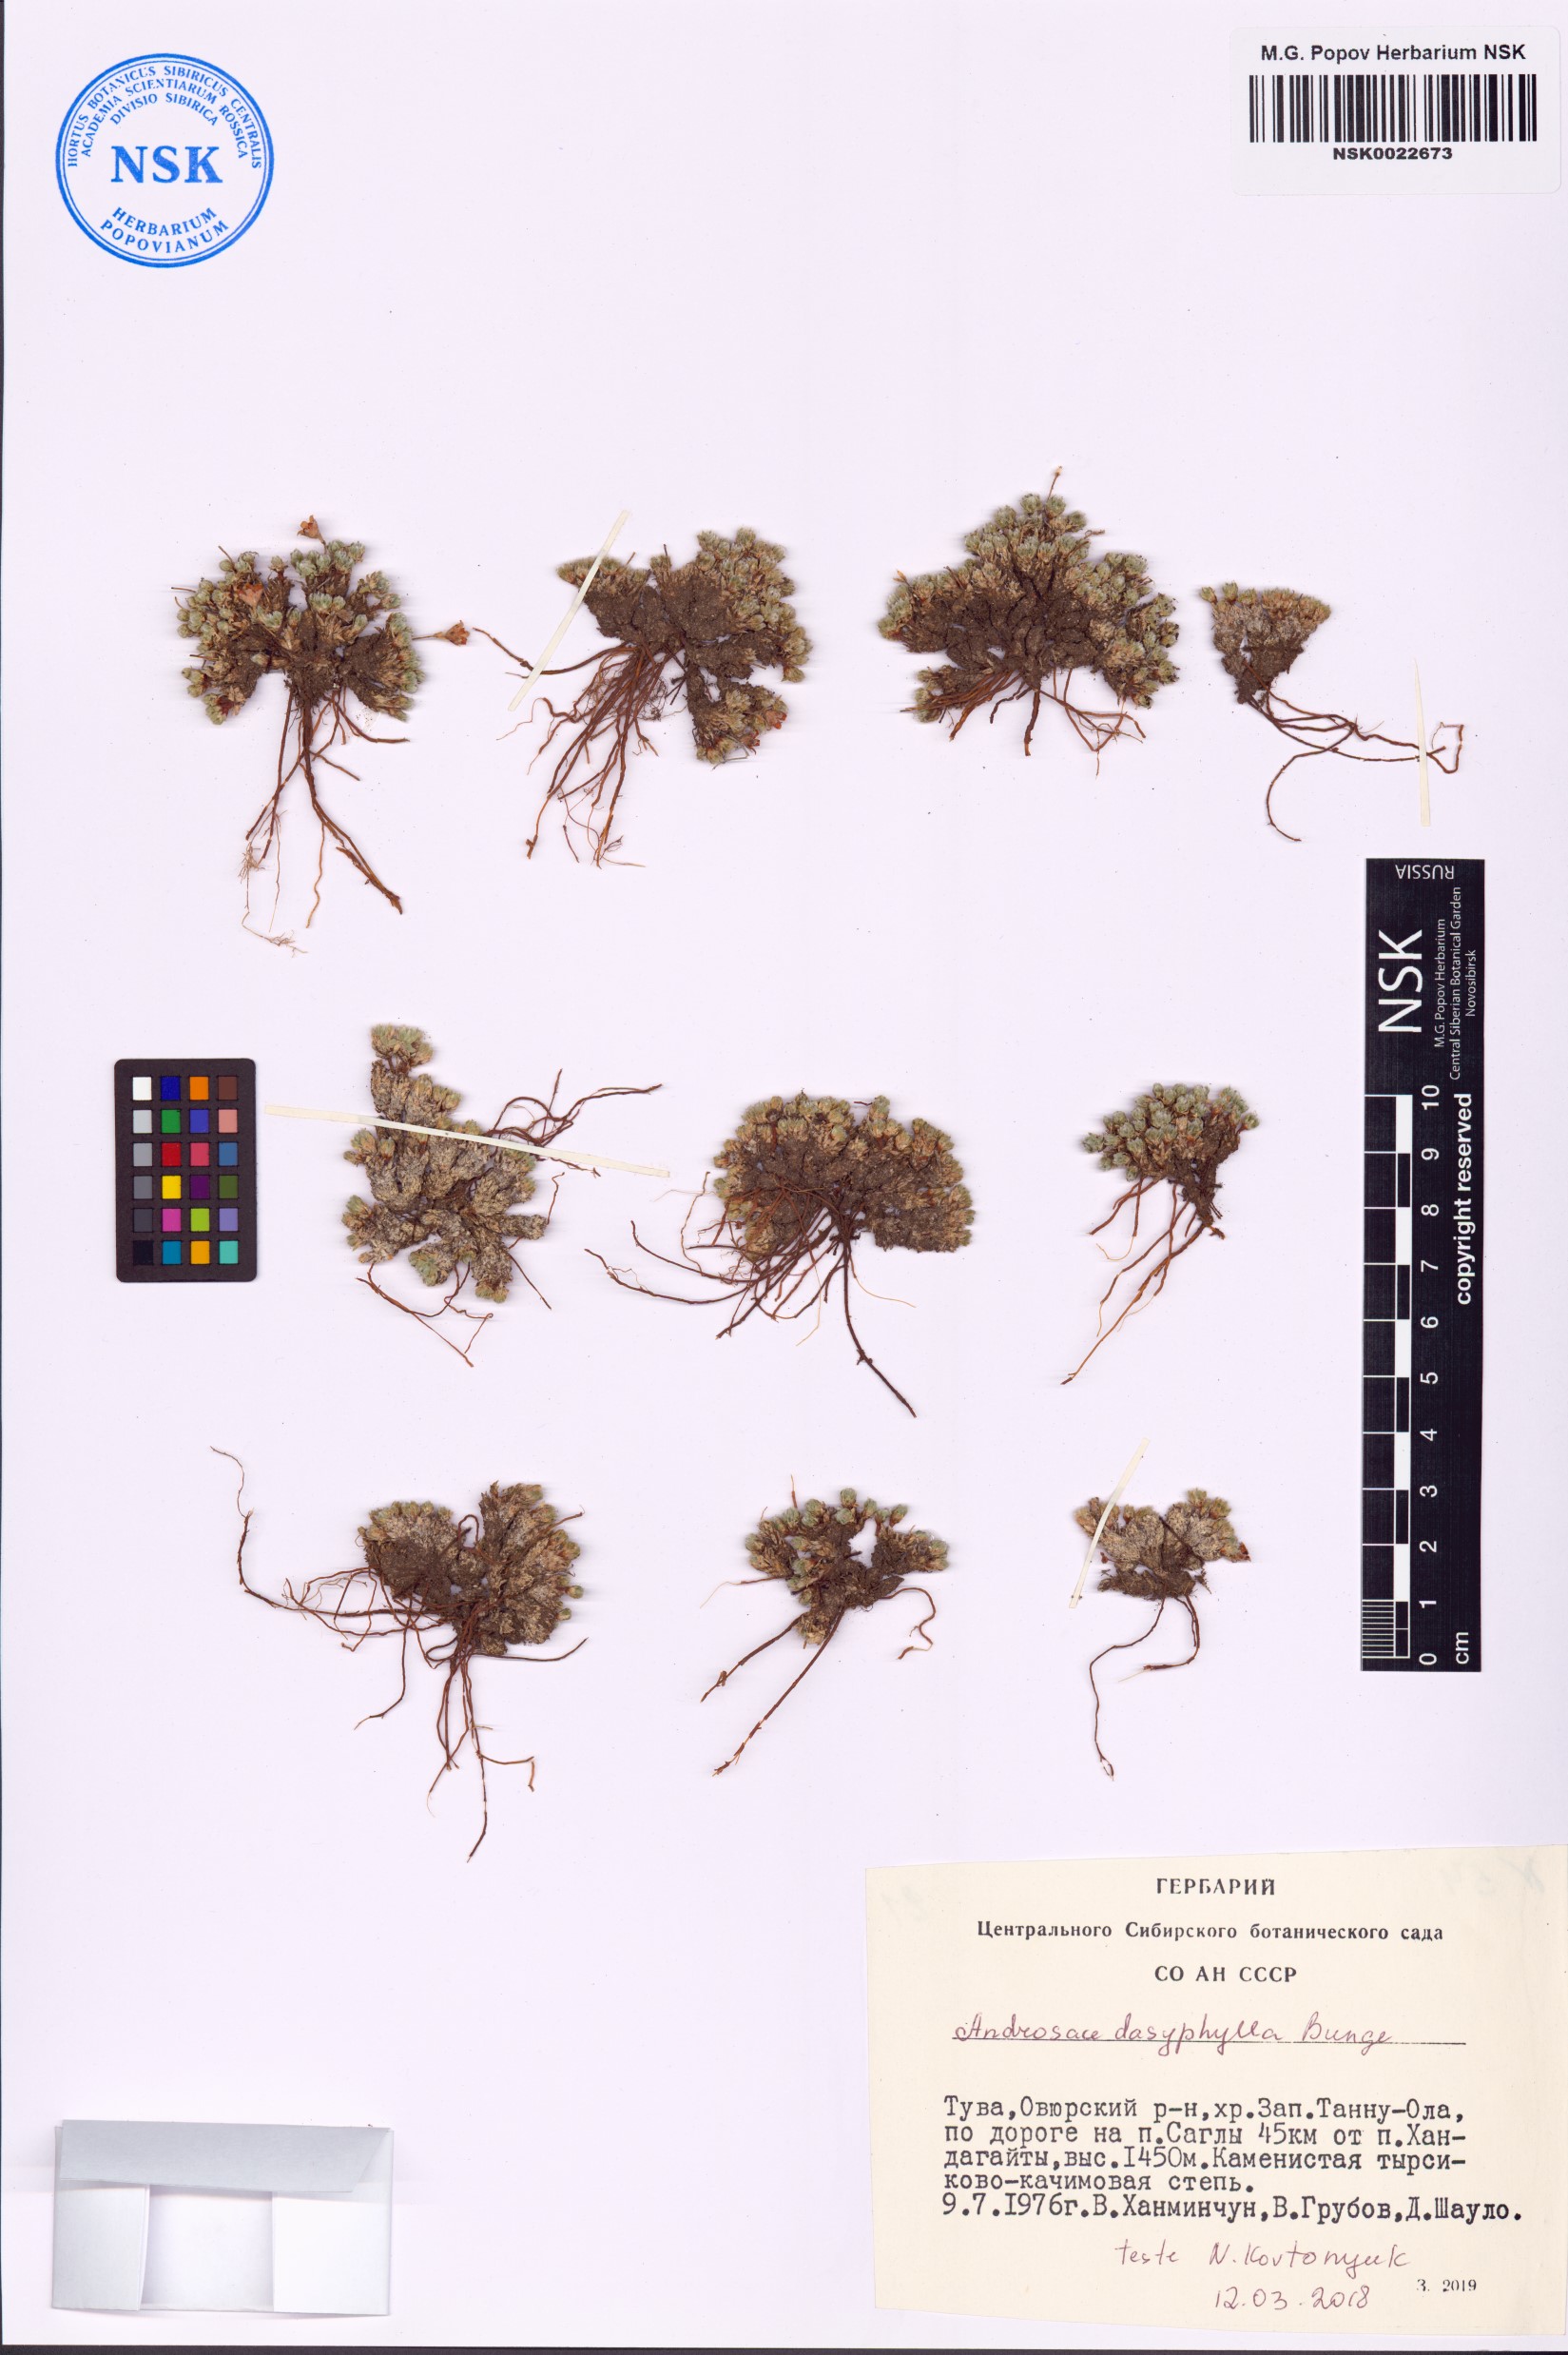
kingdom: Plantae
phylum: Tracheophyta
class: Magnoliopsida
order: Ericales
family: Primulaceae
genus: Androsace
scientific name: Androsace dasyphylla
